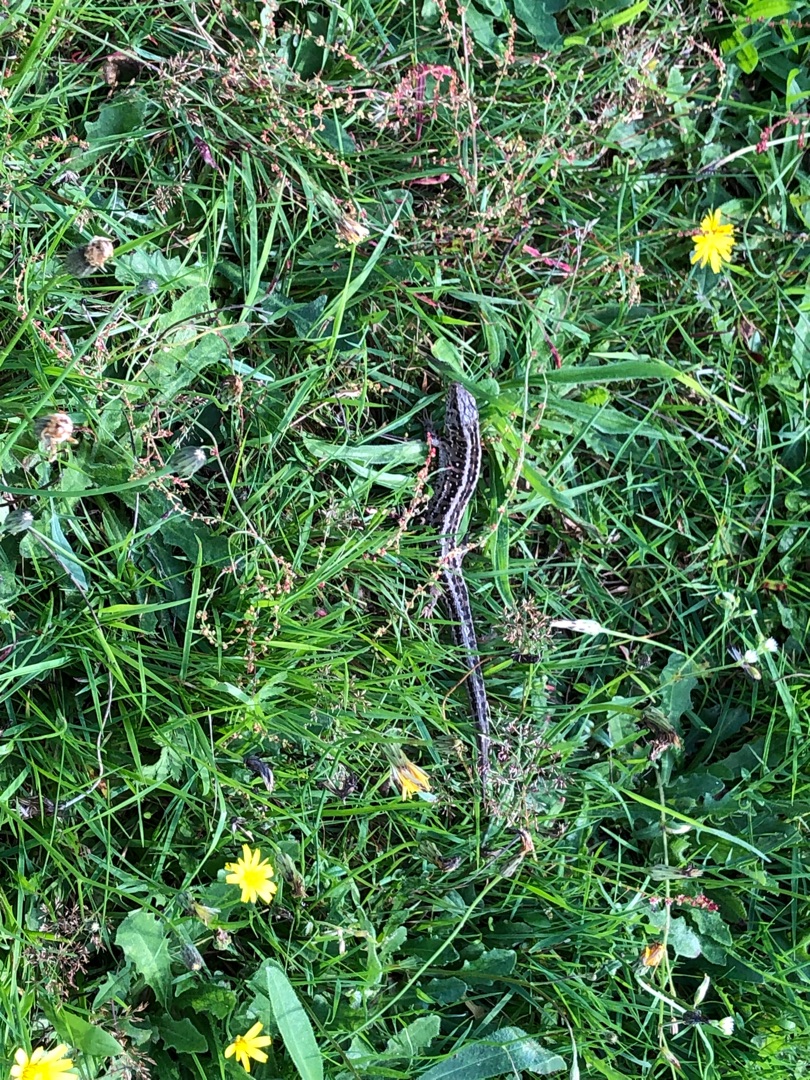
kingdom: Animalia
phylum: Chordata
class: Squamata
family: Lacertidae
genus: Lacerta
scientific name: Lacerta agilis
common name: Markfirben
